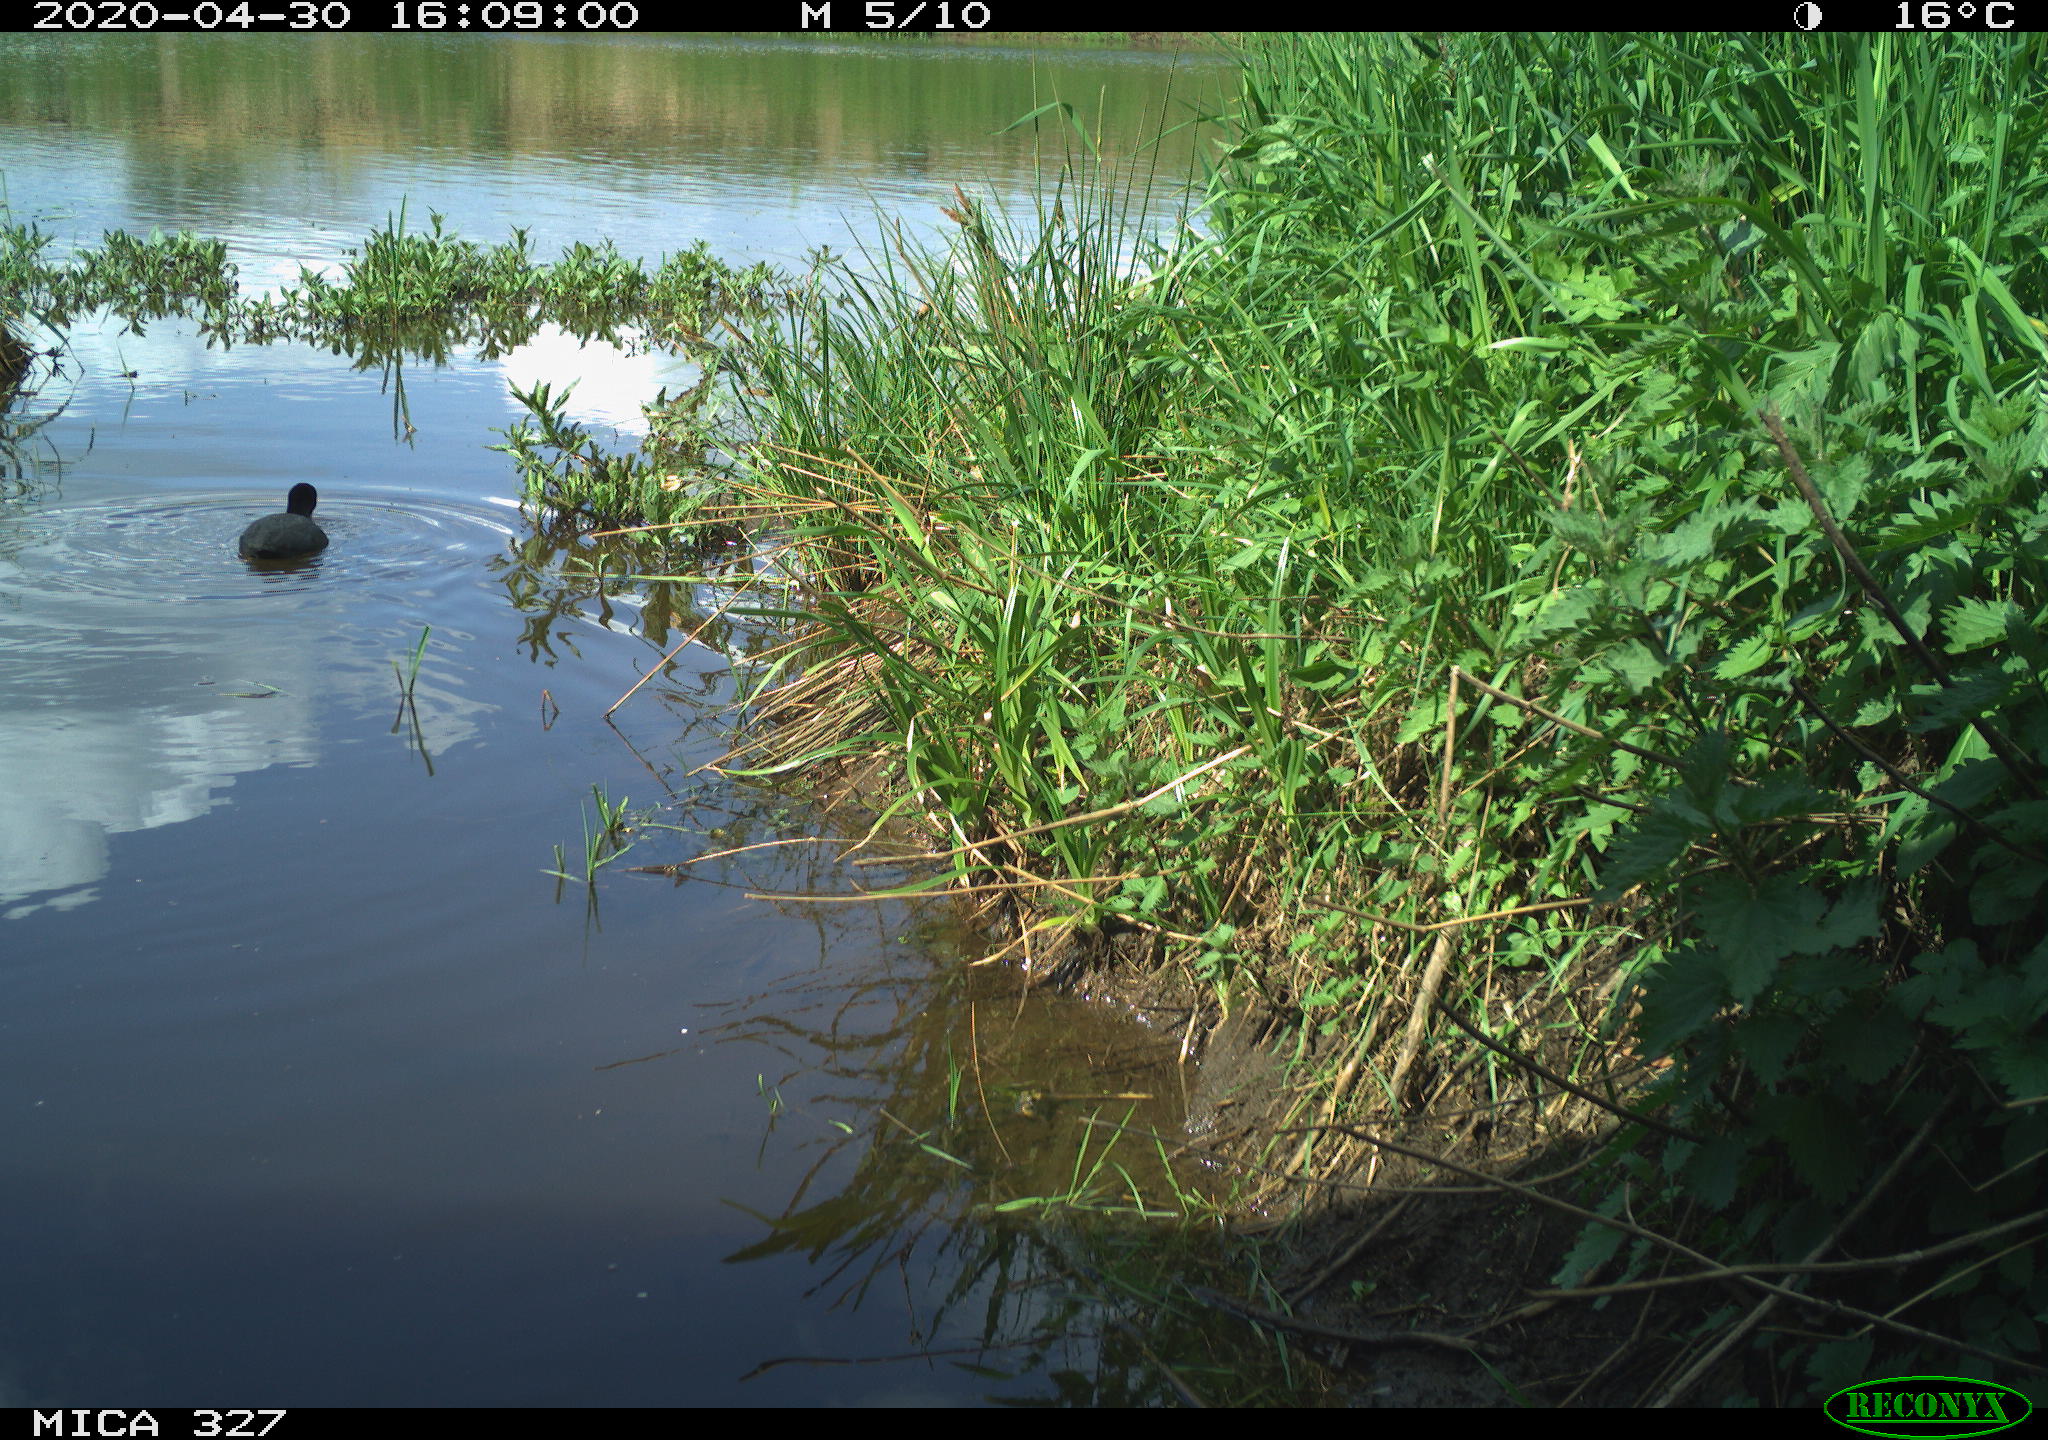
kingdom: Animalia
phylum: Chordata
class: Aves
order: Gruiformes
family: Rallidae
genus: Fulica
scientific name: Fulica atra
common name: Eurasian coot
